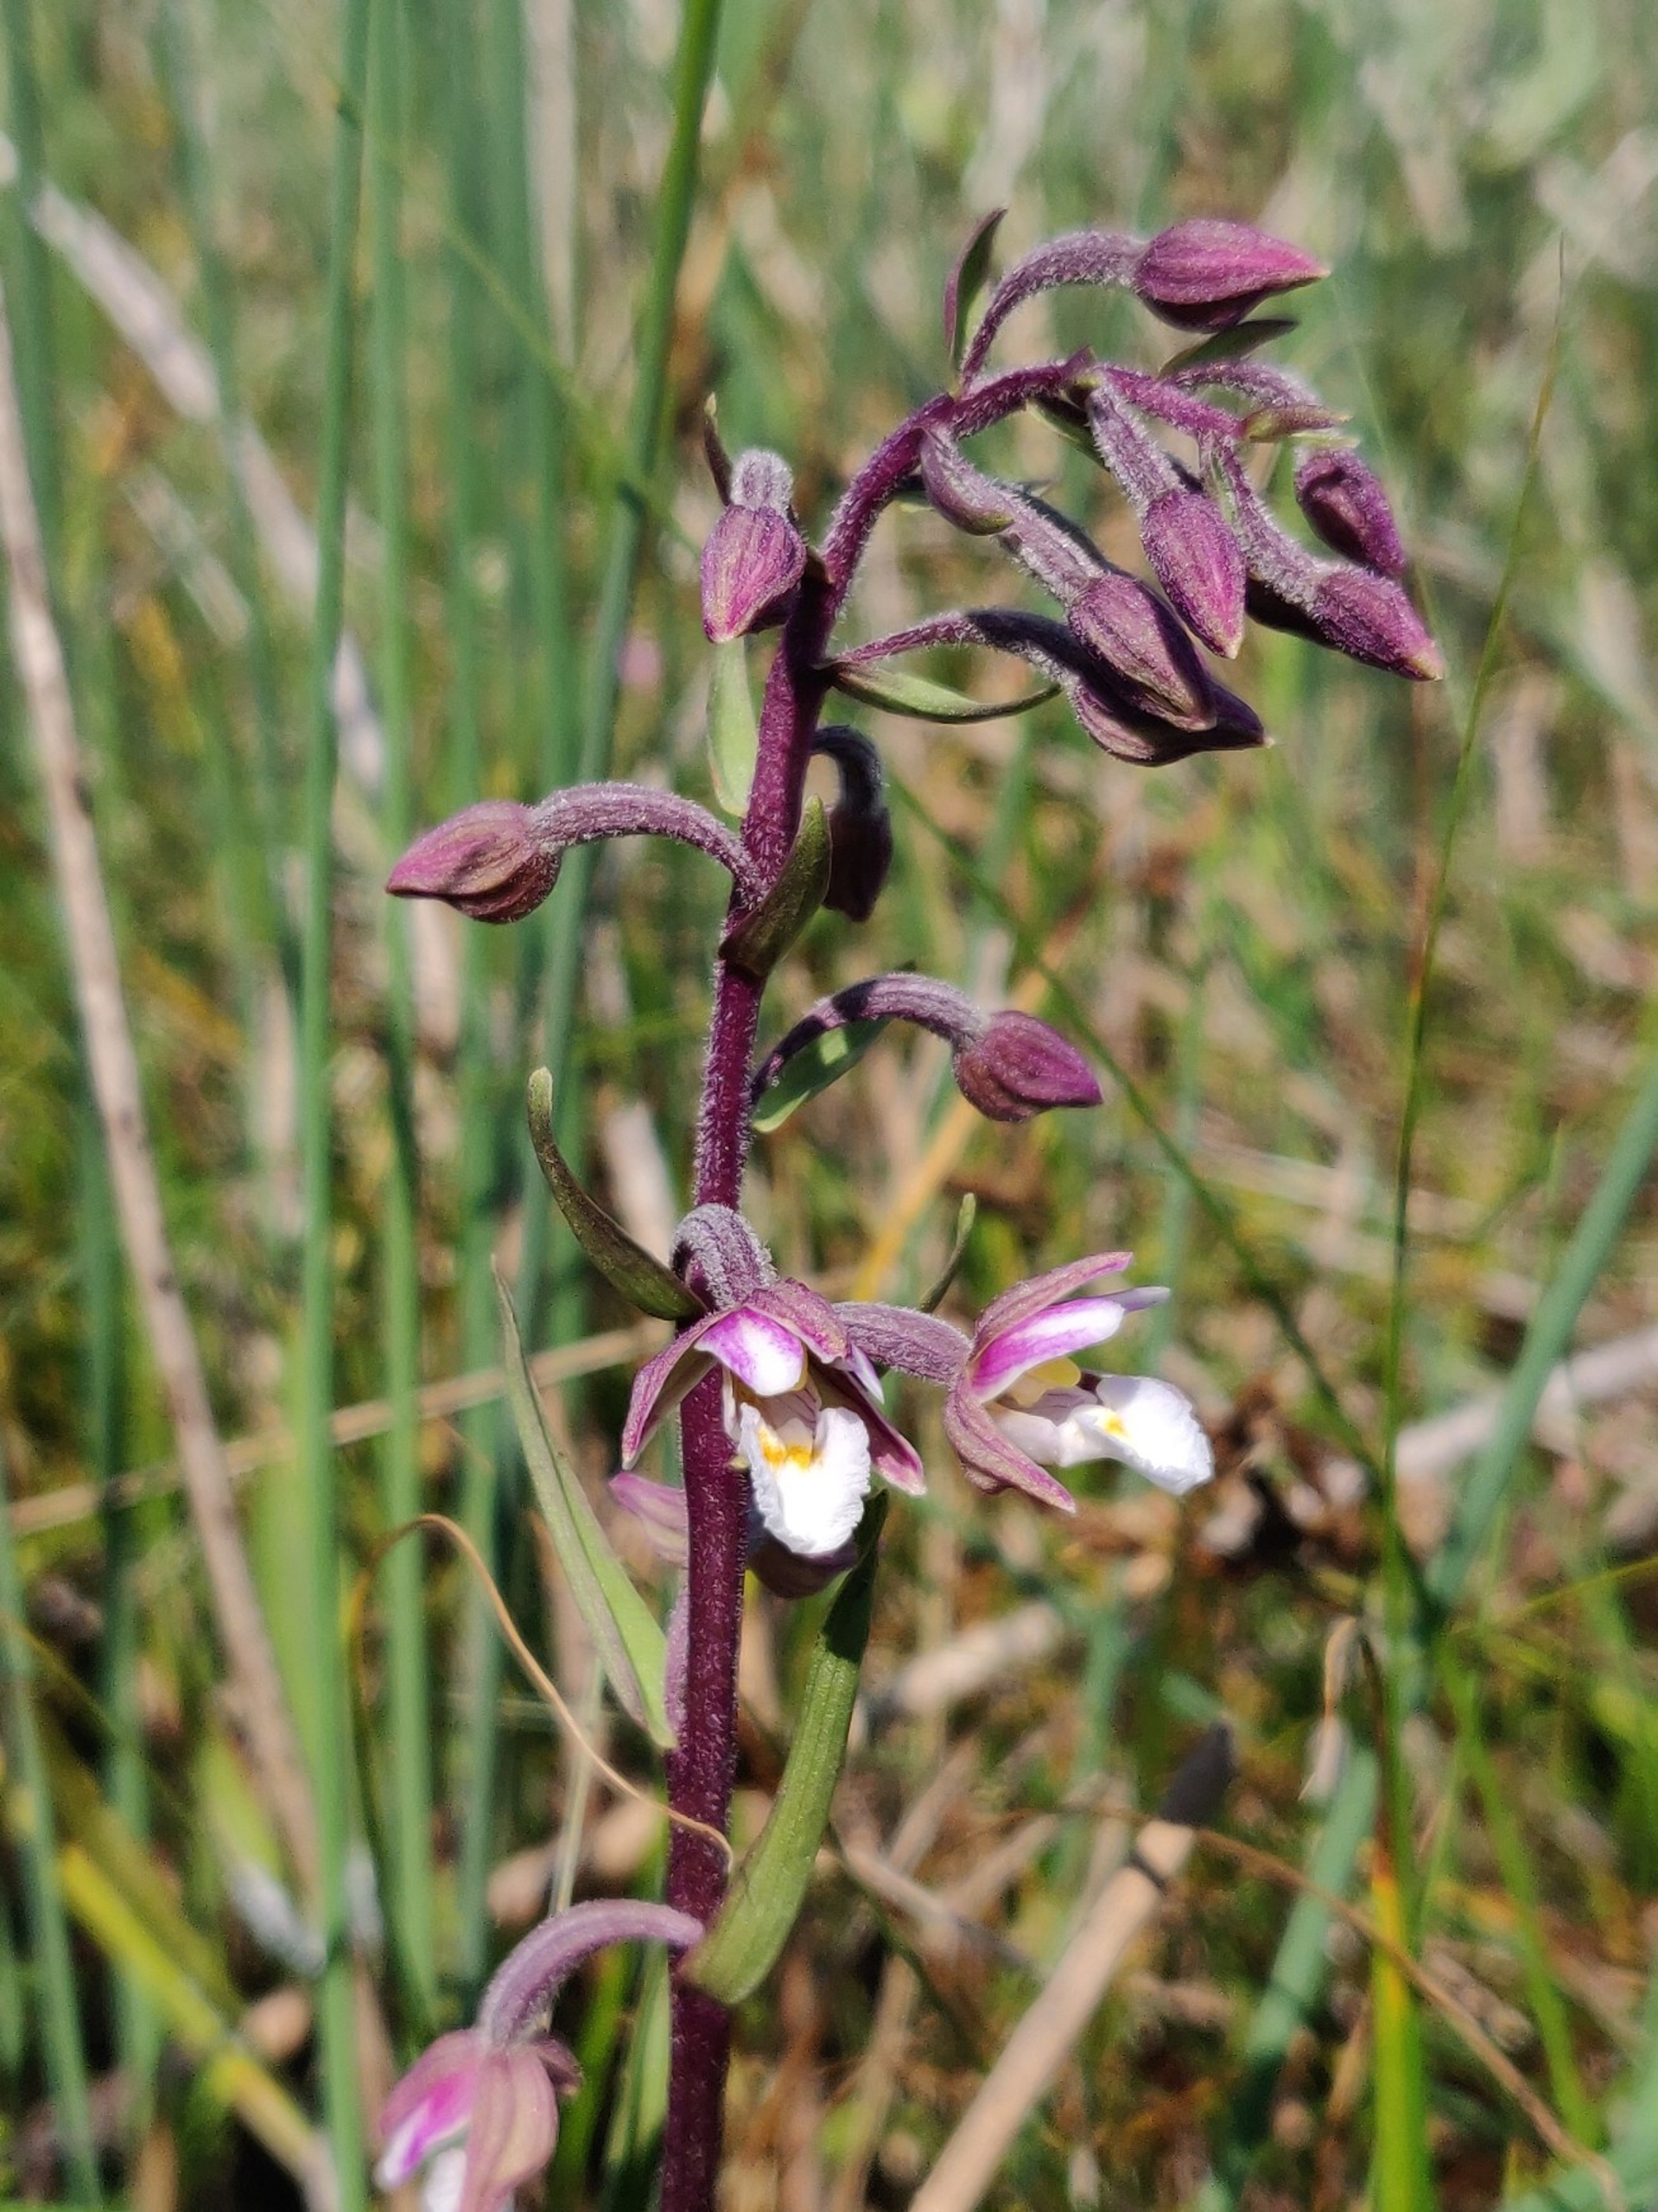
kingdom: Plantae
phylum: Tracheophyta
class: Liliopsida
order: Asparagales
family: Orchidaceae
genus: Epipactis
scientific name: Epipactis palustris
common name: Sump-hullæbe
